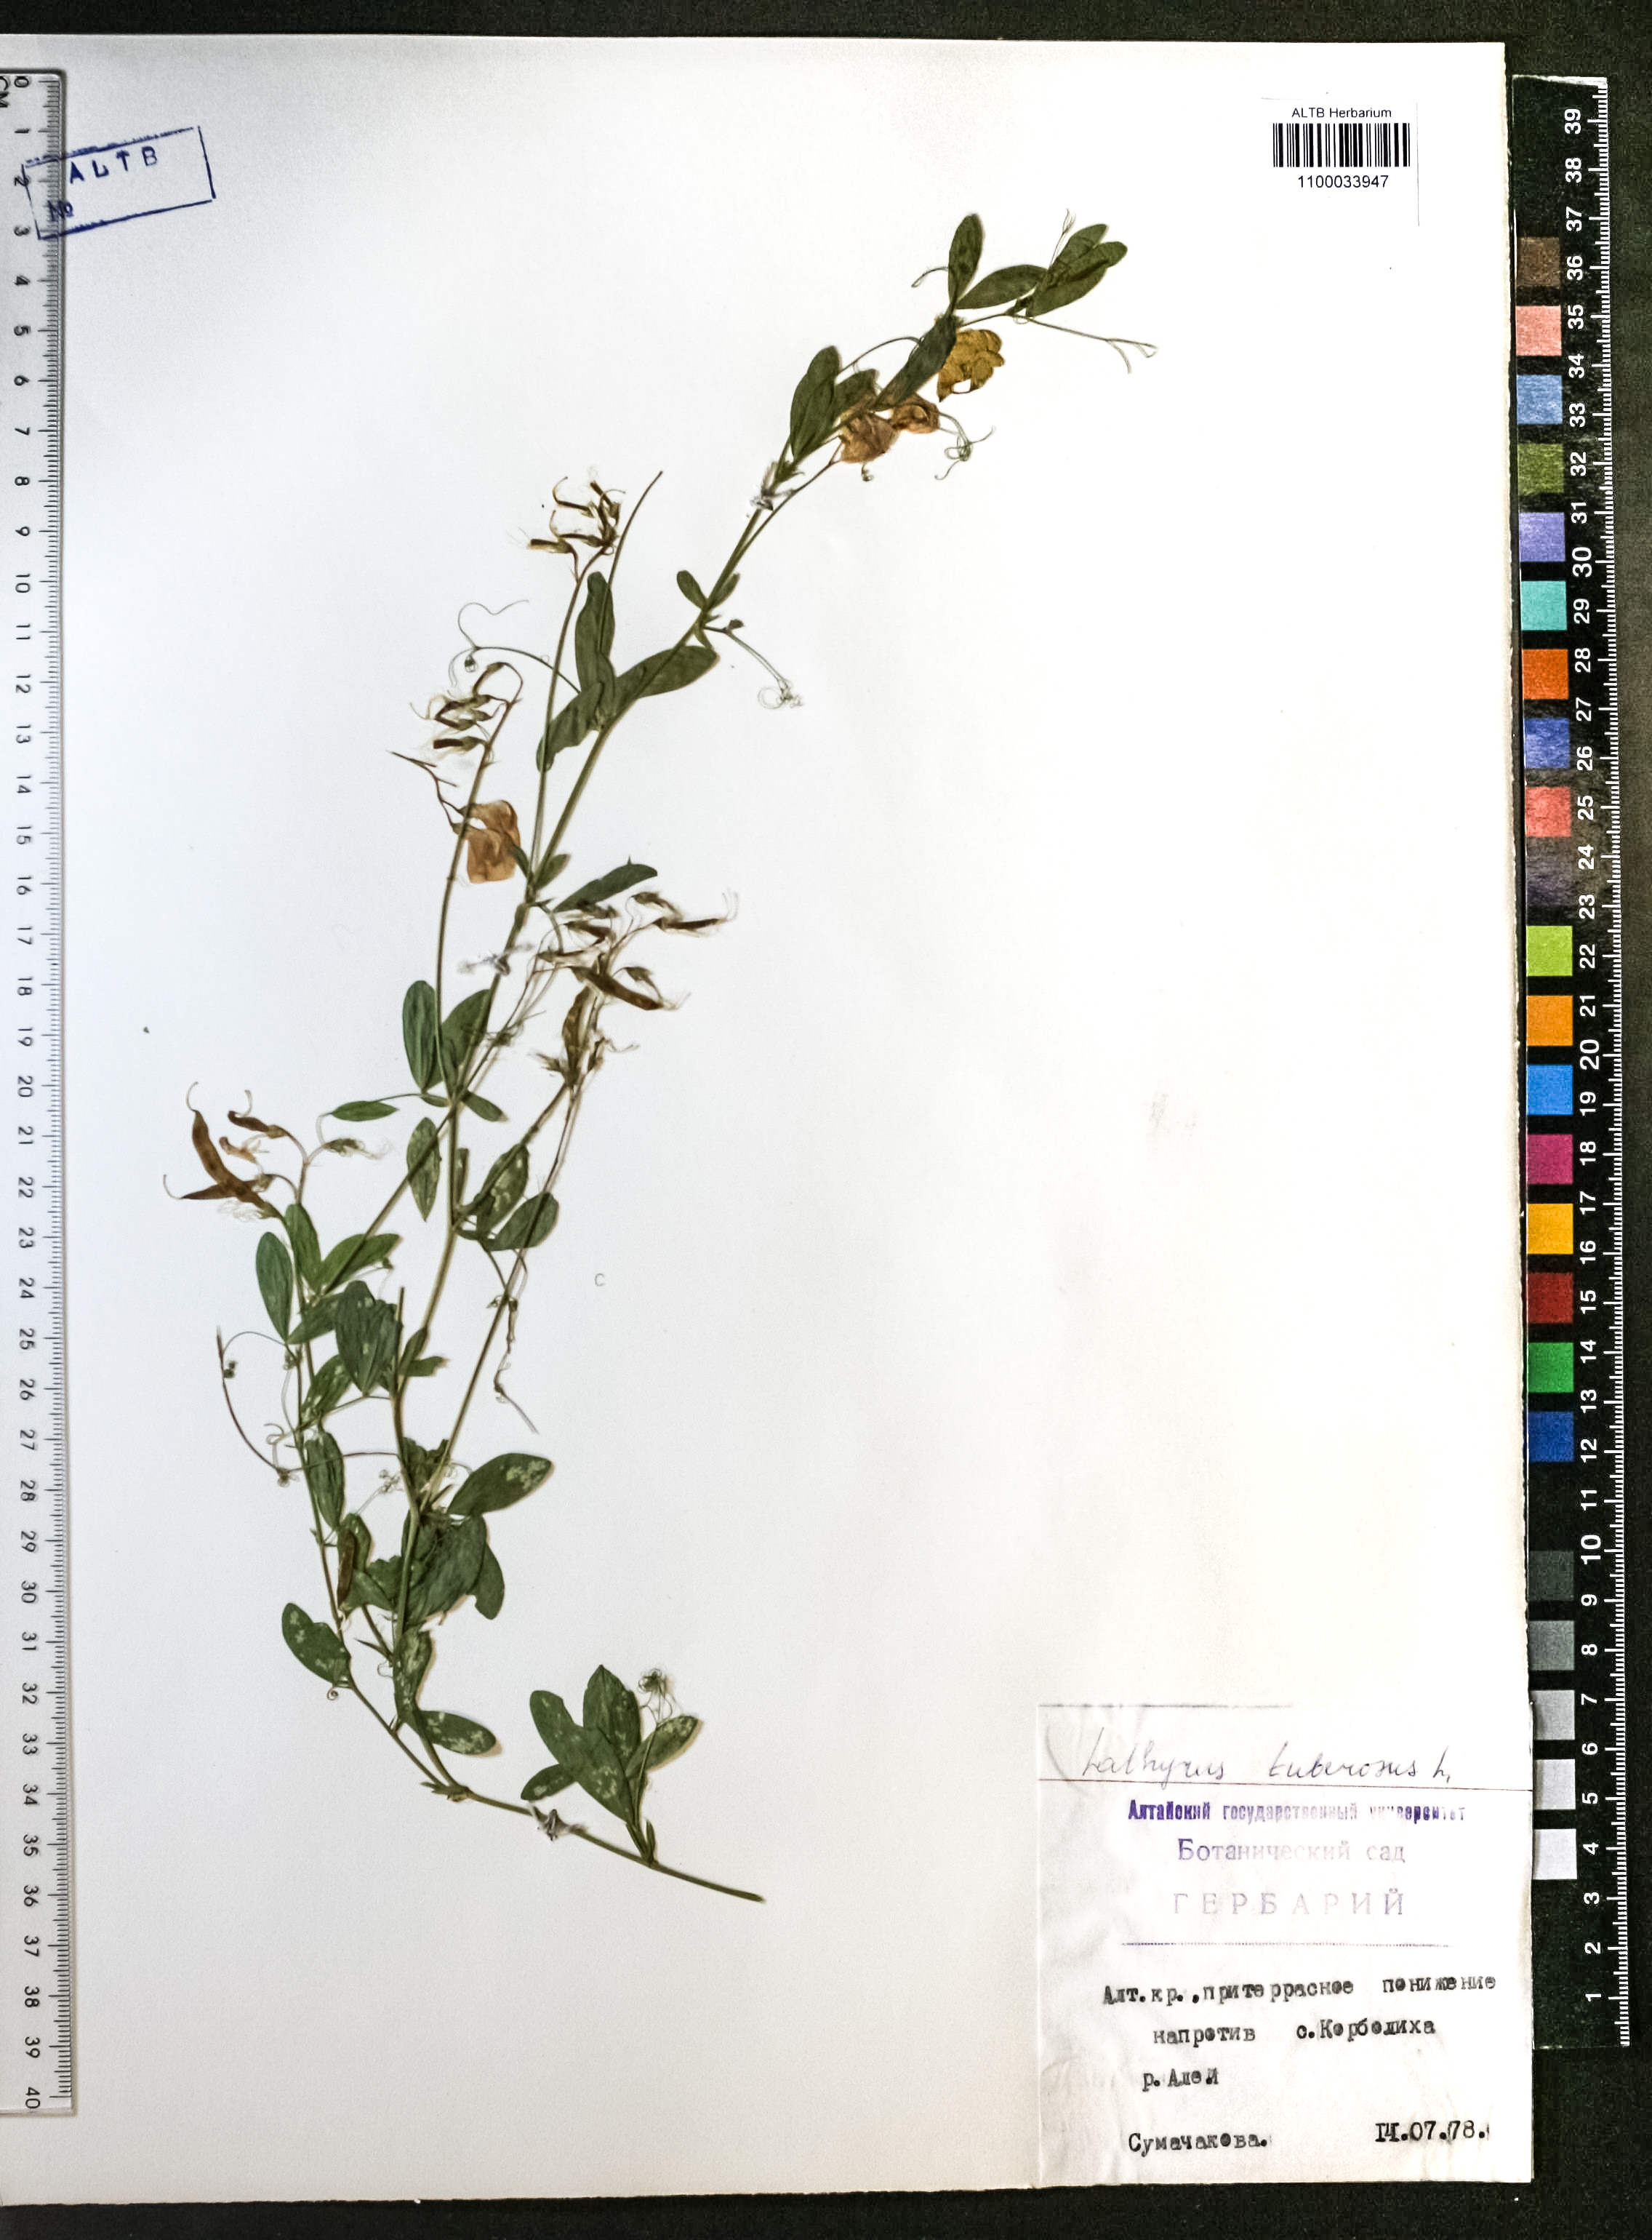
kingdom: Plantae
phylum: Tracheophyta
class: Magnoliopsida
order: Fabales
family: Fabaceae
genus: Lathyrus
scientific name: Lathyrus tuberosus
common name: Tuberous pea
